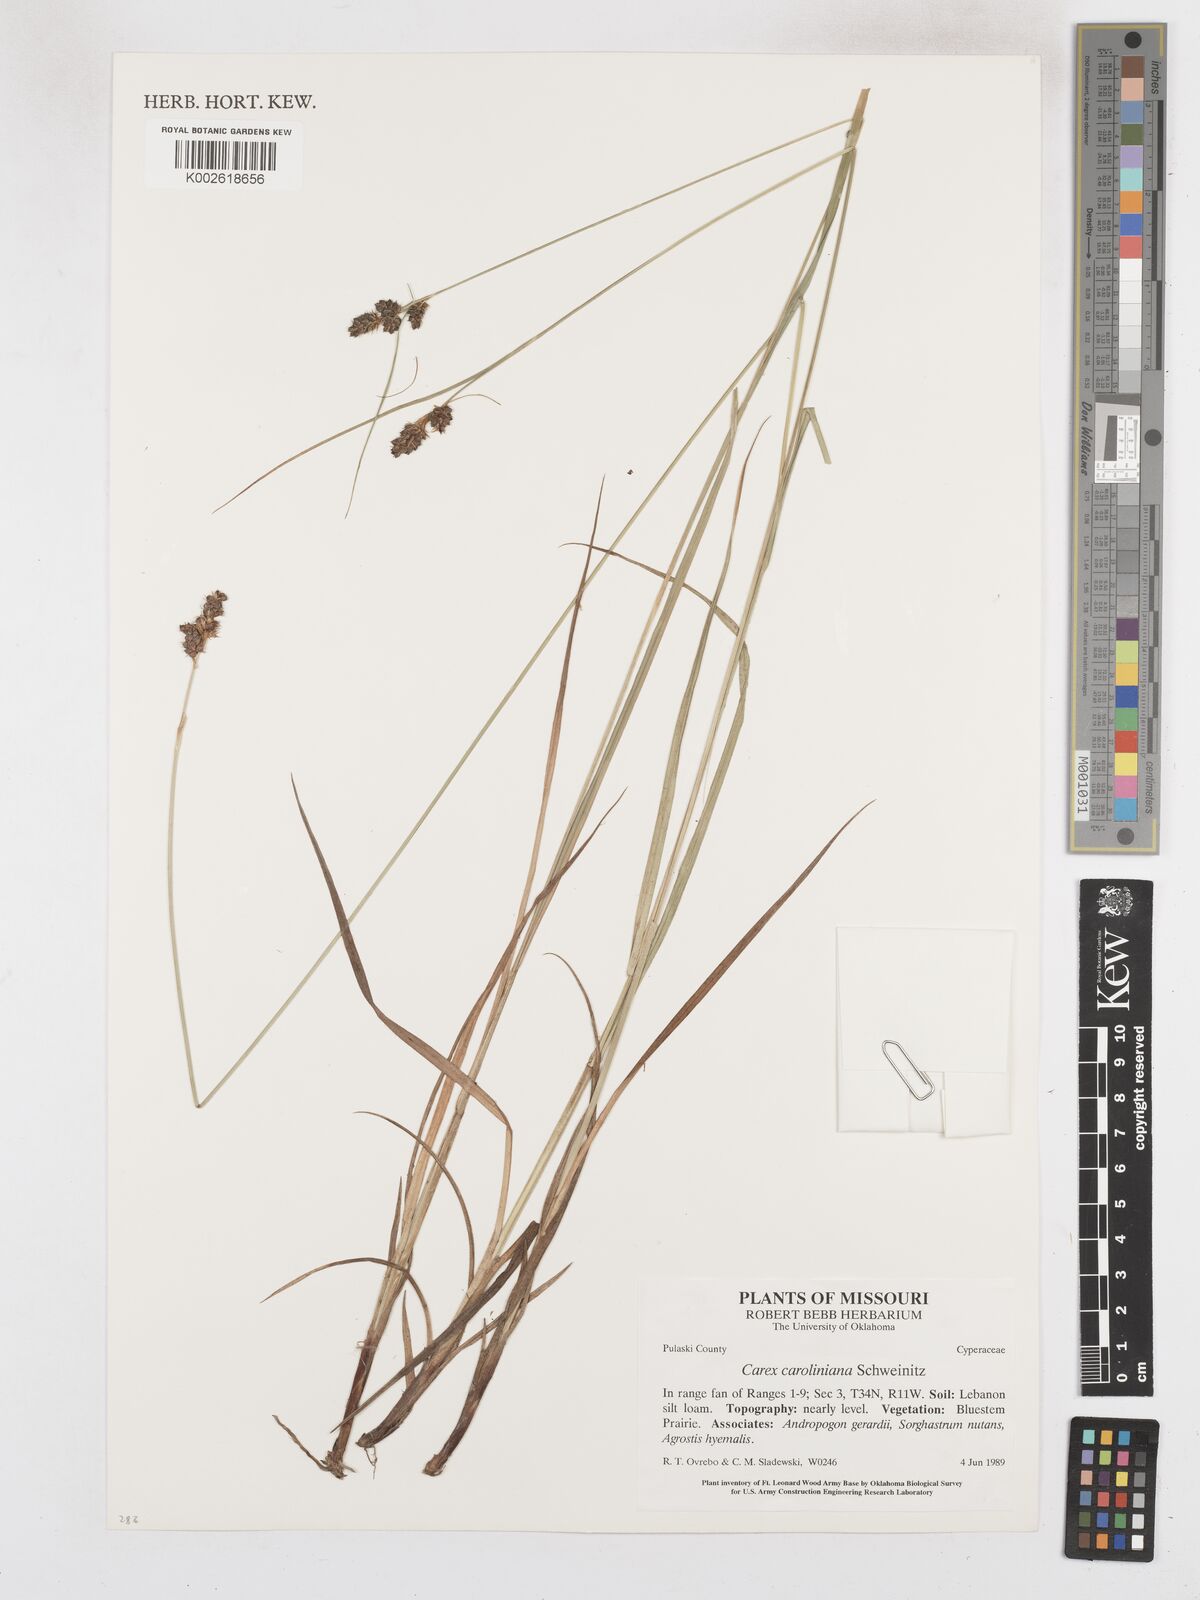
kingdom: Plantae
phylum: Tracheophyta
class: Liliopsida
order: Poales
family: Cyperaceae
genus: Carex
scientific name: Carex austrocaroliniana
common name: Tarheel sedge
